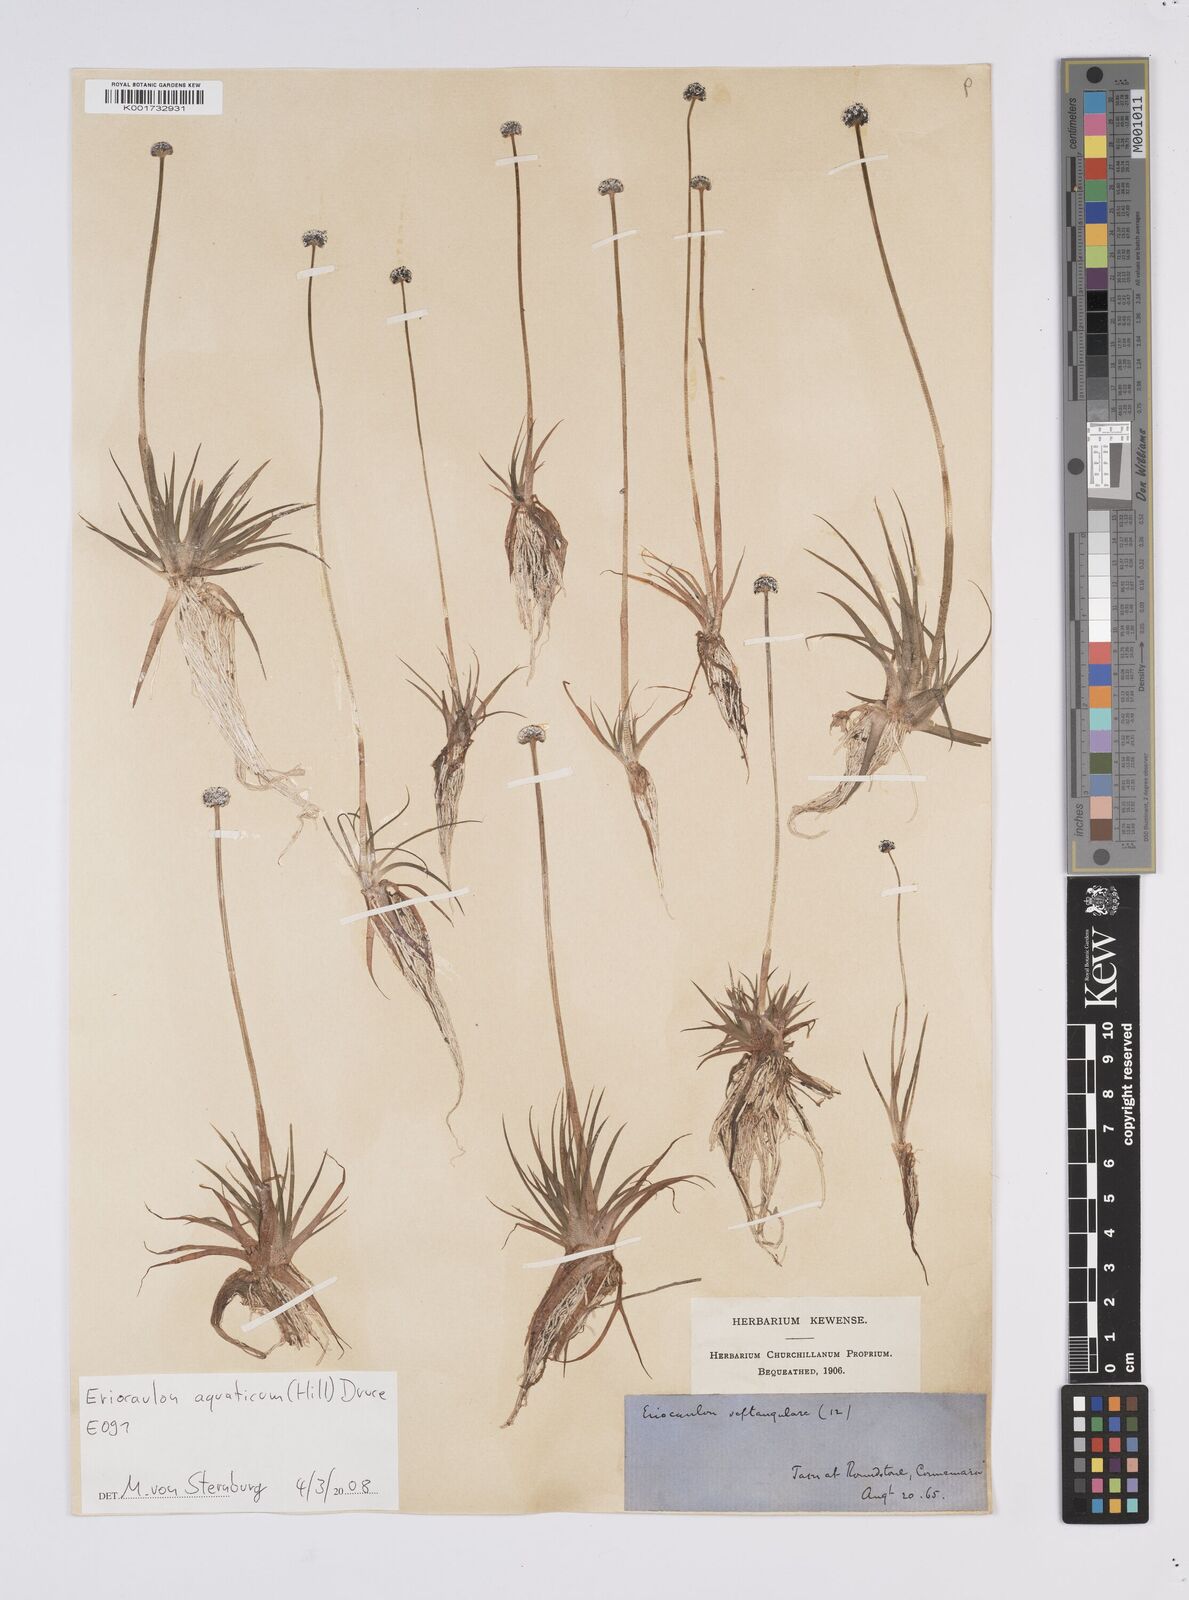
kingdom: Plantae
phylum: Tracheophyta
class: Liliopsida
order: Poales
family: Eriocaulaceae
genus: Eriocaulon
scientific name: Eriocaulon aquaticum
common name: Pipewort
